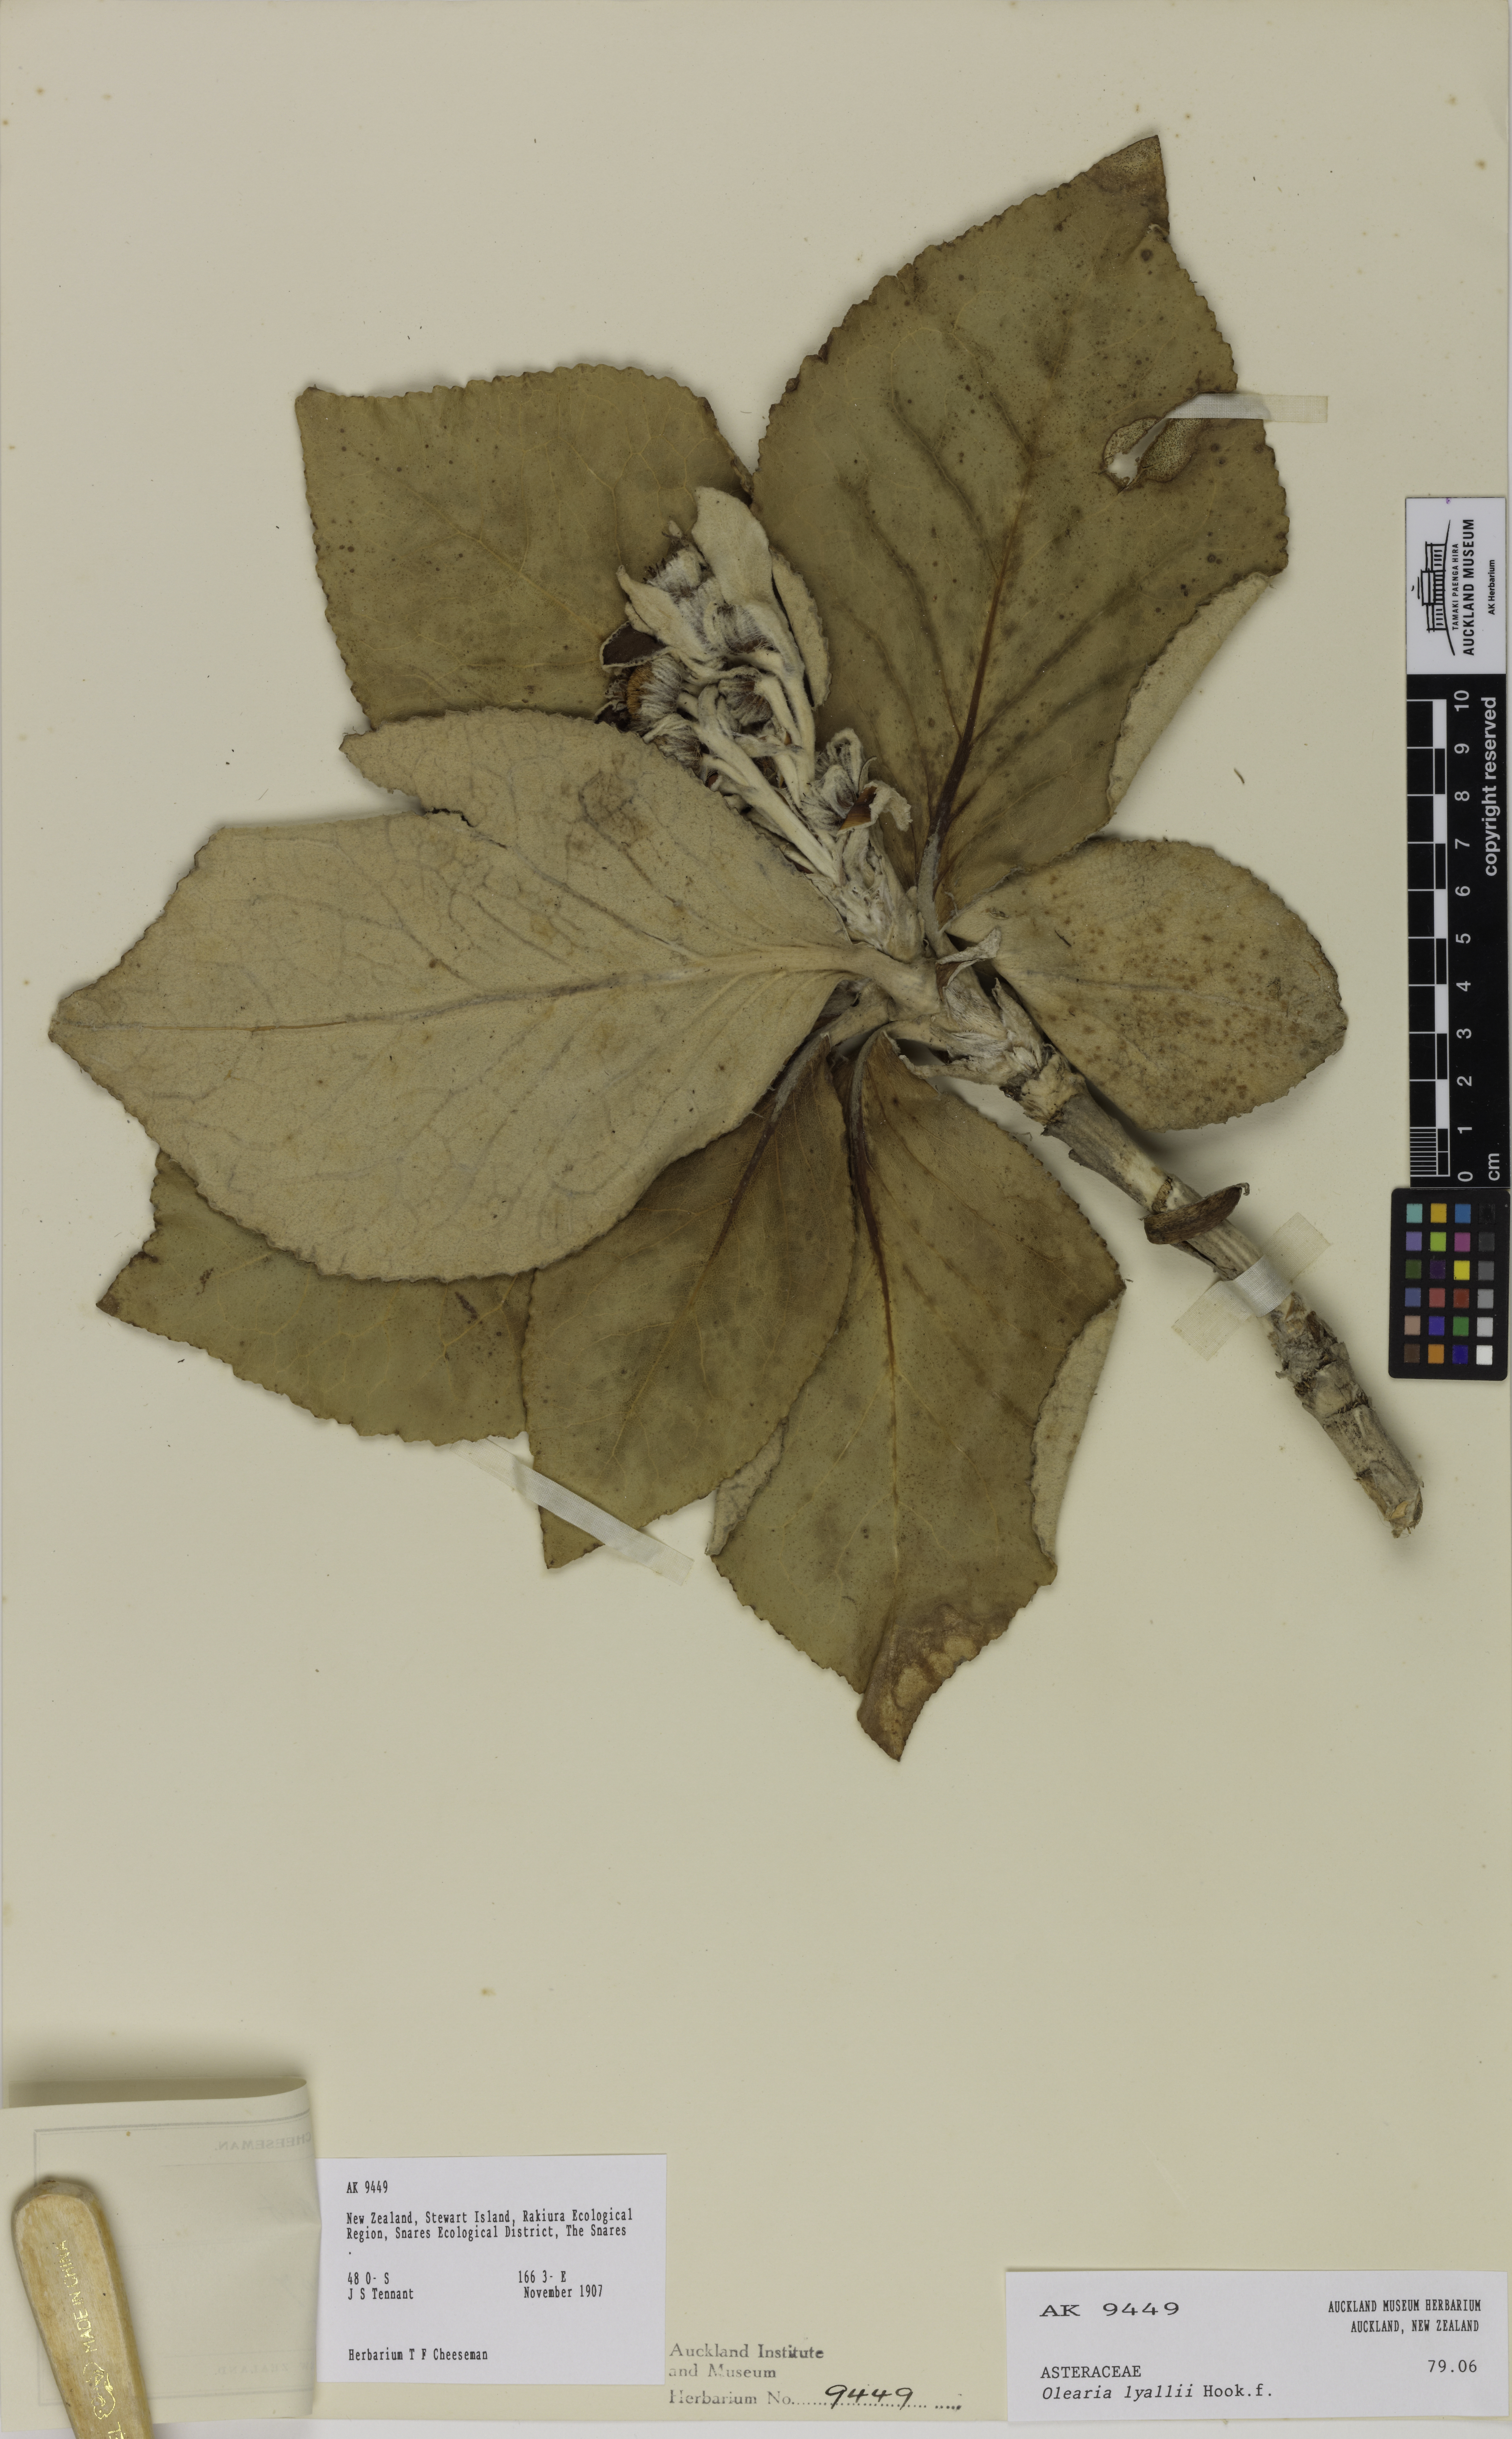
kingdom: Plantae
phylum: Tracheophyta
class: Magnoliopsida
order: Asterales
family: Asteraceae
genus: Macrolearia
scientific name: Macrolearia lyallii
